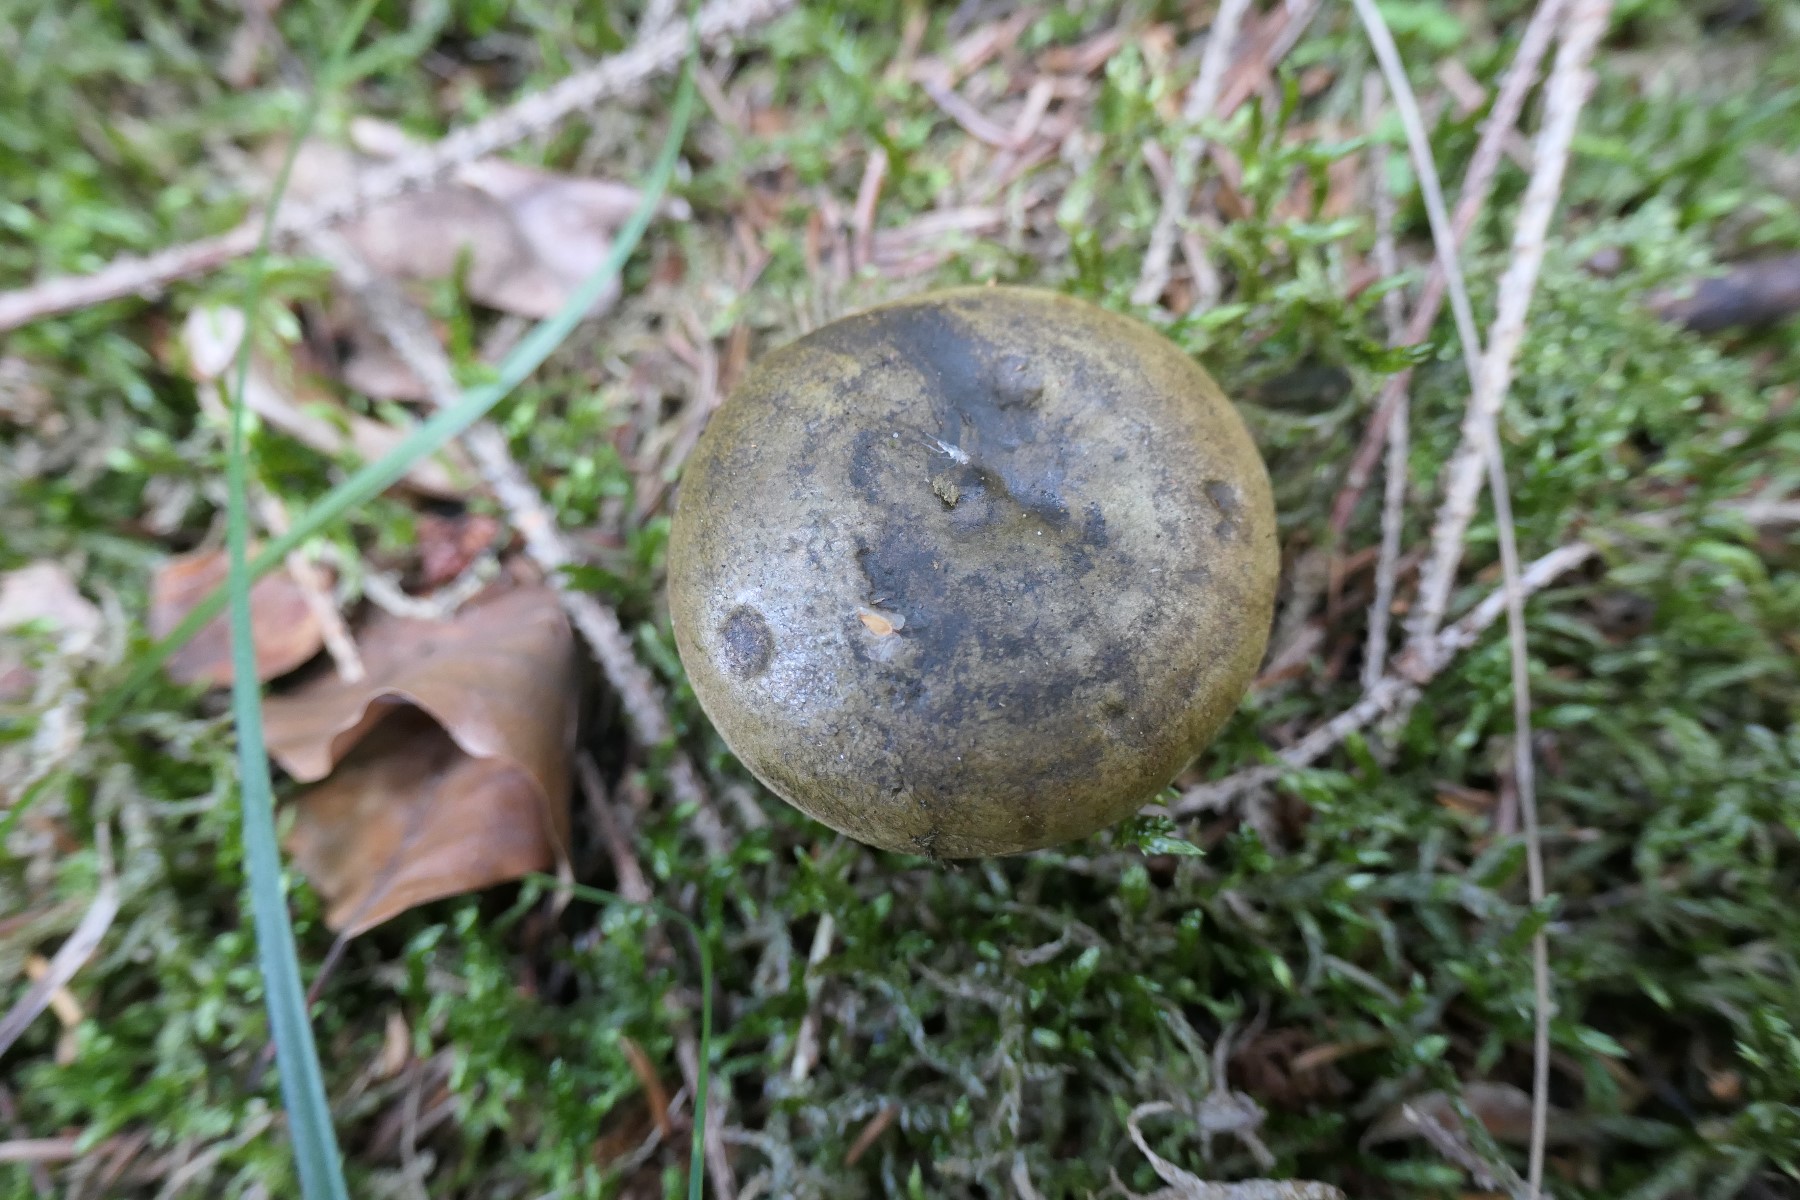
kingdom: Fungi
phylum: Basidiomycota
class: Agaricomycetes
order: Russulales
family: Russulaceae
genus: Lactarius
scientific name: Lactarius necator
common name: manddraber-mælkehat
